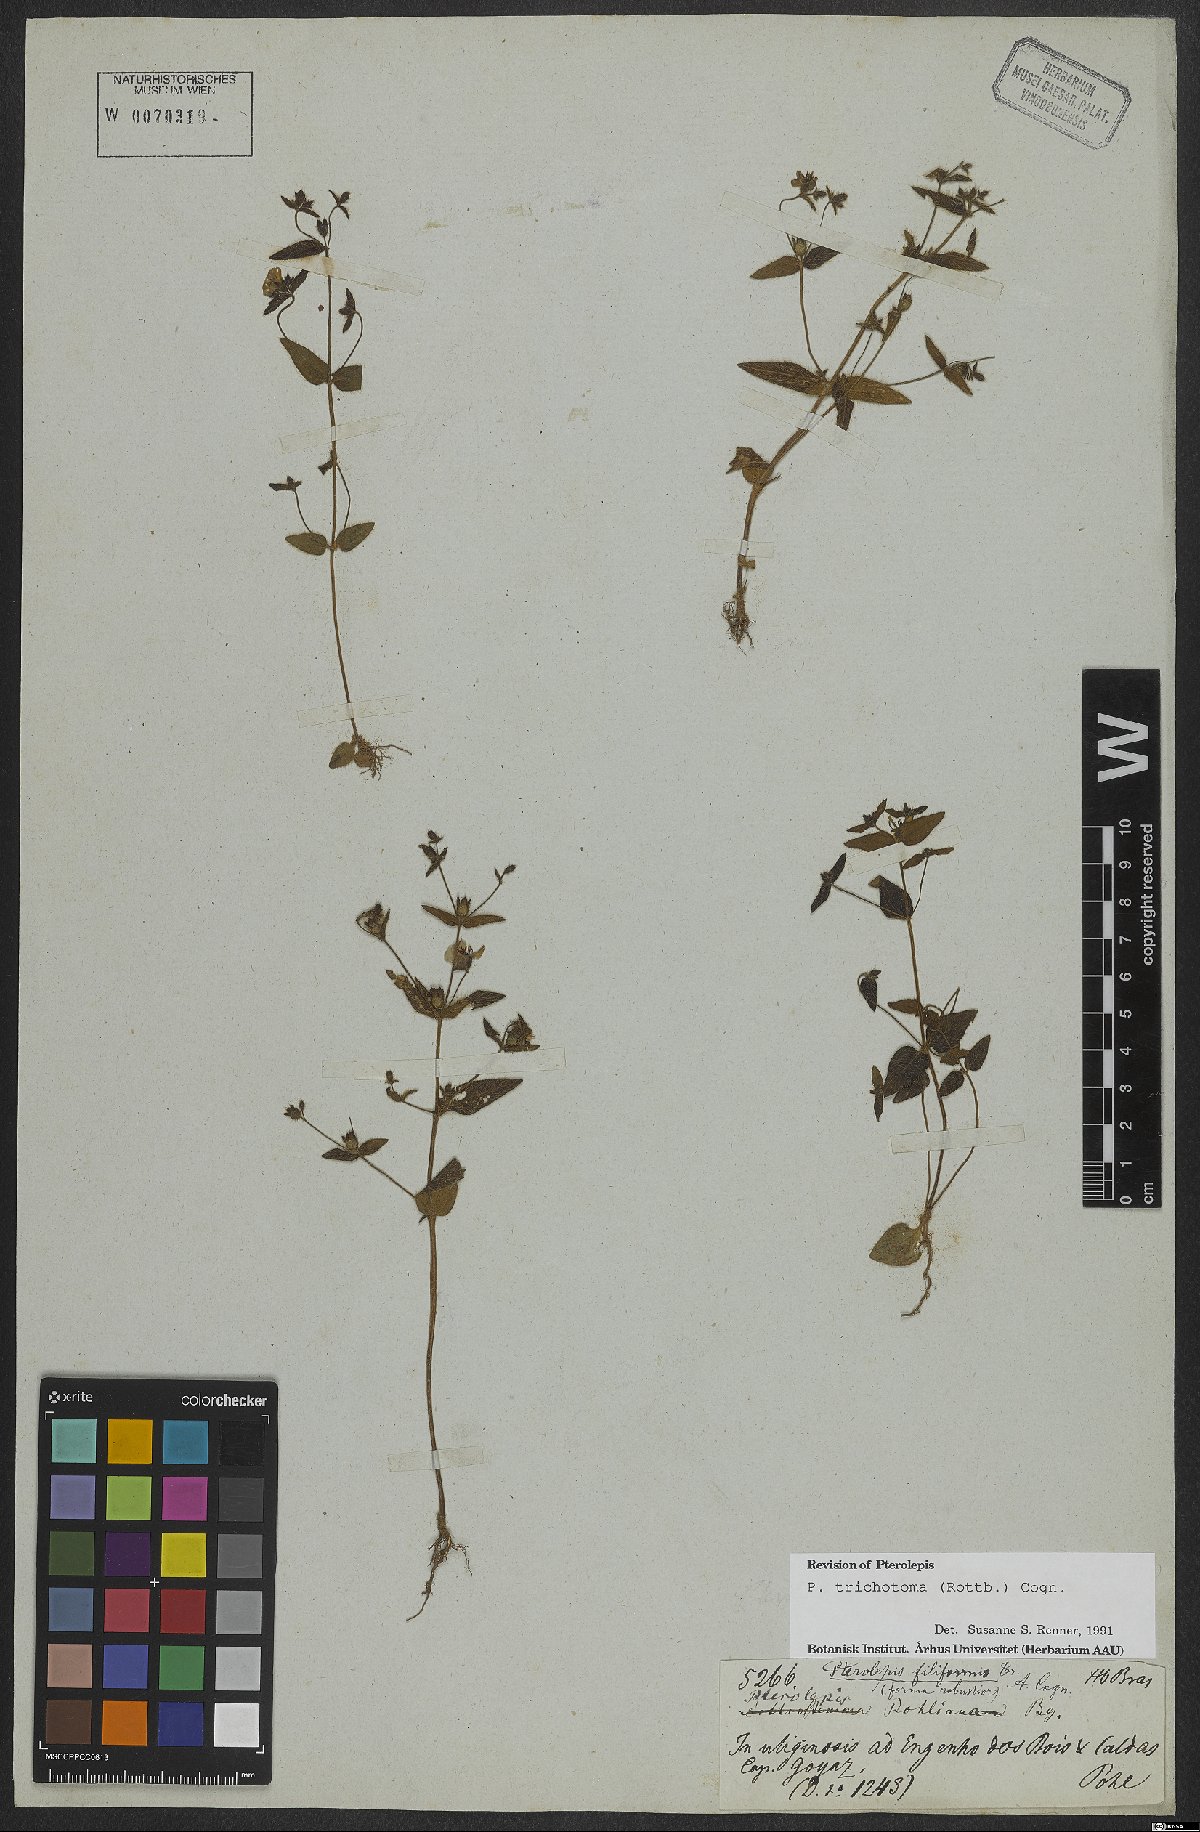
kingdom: Plantae
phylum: Tracheophyta
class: Magnoliopsida
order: Myrtales
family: Melastomataceae
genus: Pterolepis
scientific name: Pterolepis trichotoma
